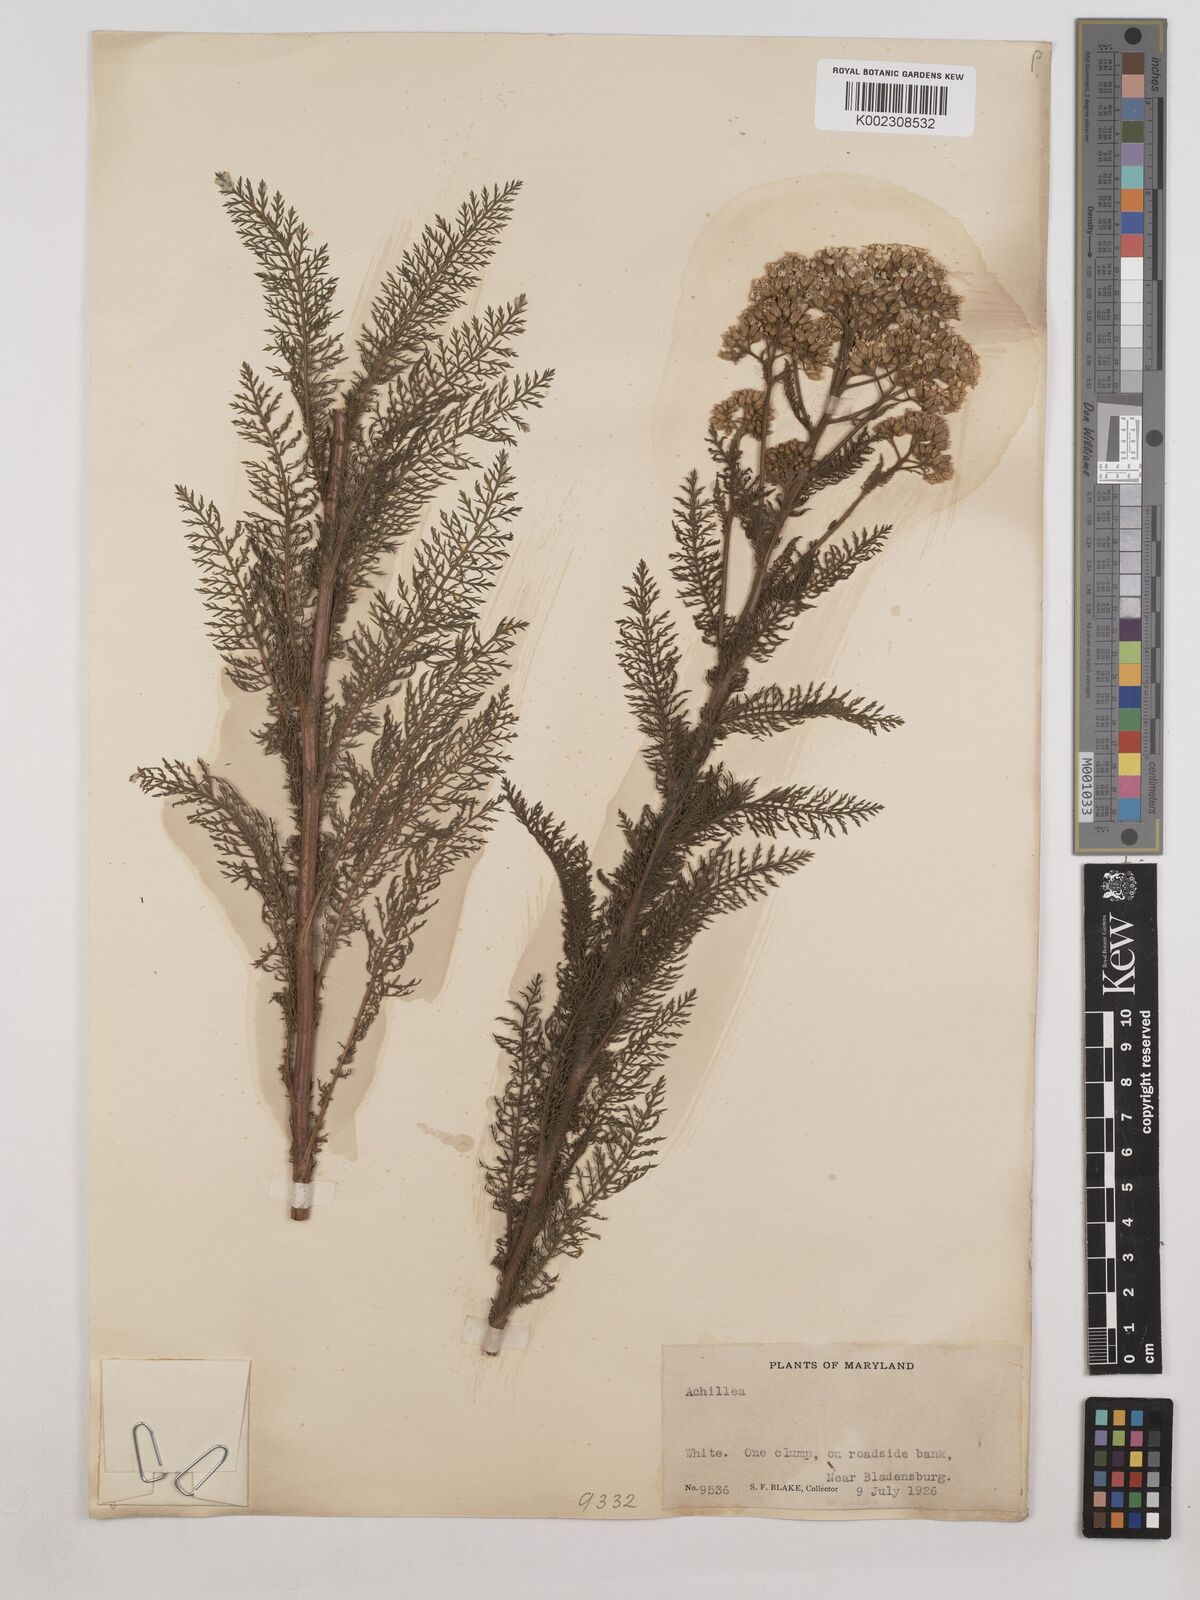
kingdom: Plantae
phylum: Tracheophyta
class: Magnoliopsida
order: Asterales
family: Asteraceae
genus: Achillea
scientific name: Achillea
